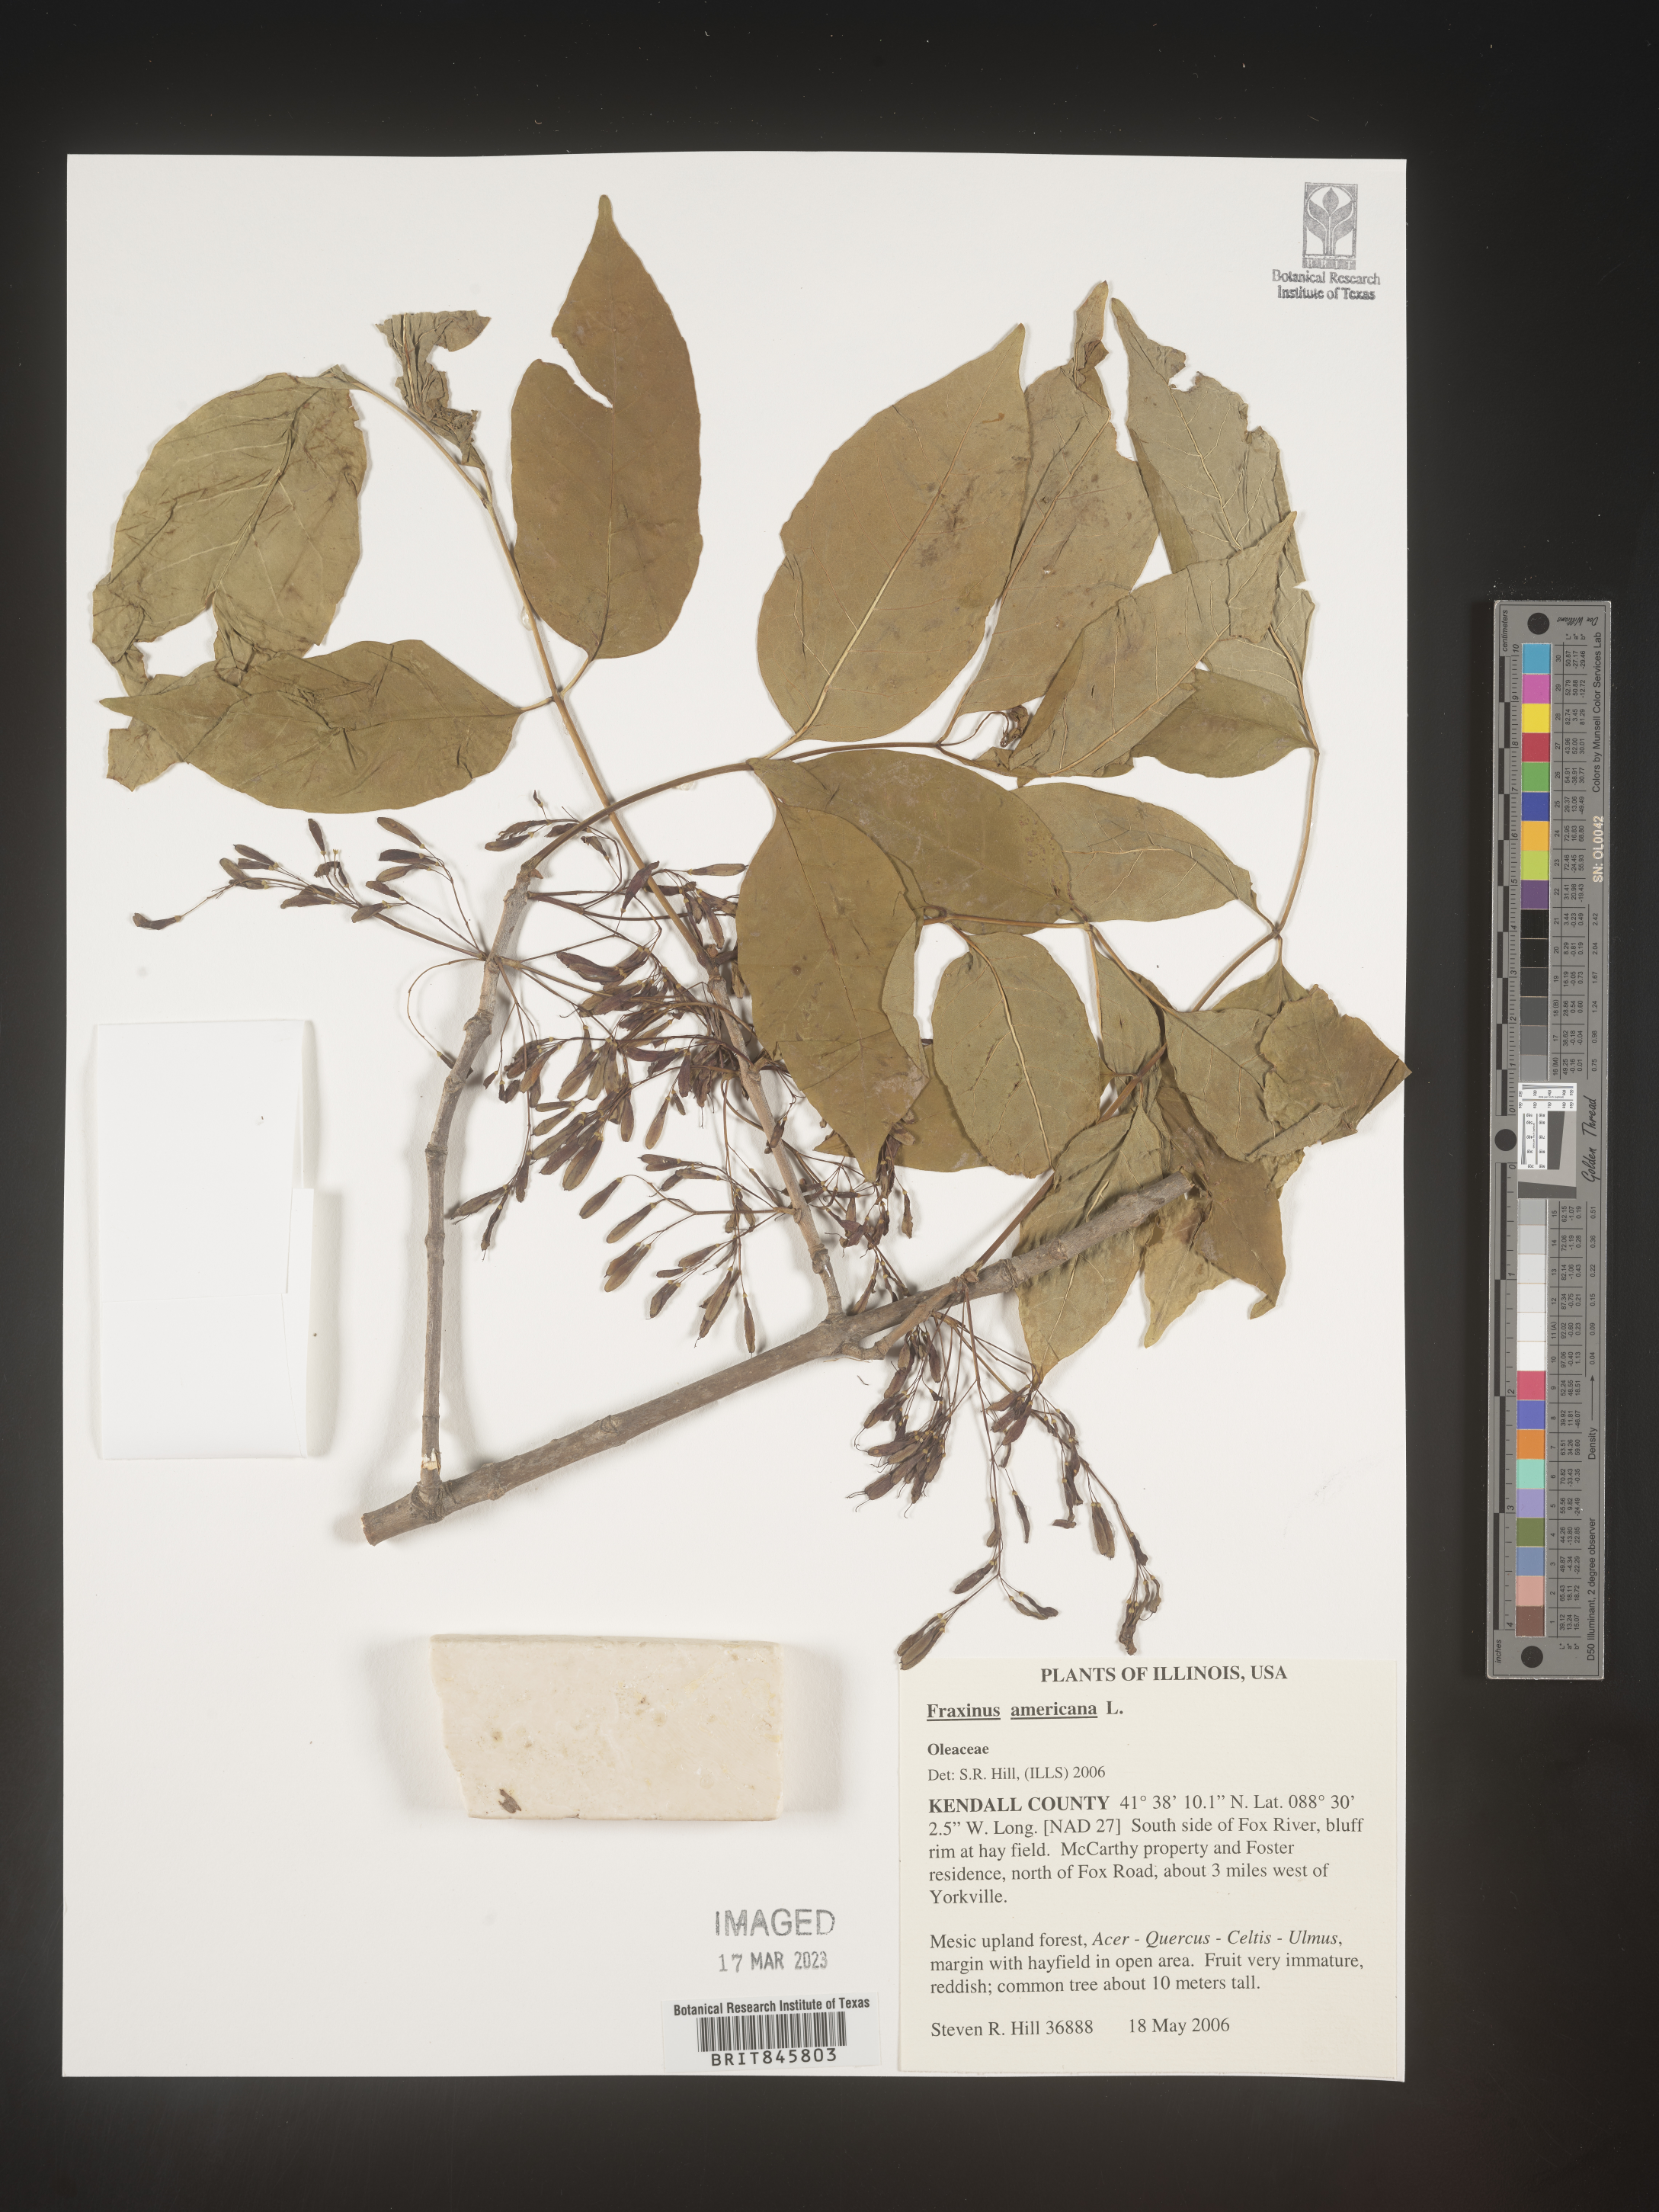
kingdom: Plantae
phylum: Tracheophyta
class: Magnoliopsida
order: Lamiales
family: Oleaceae
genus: Fraxinus
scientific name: Fraxinus americana
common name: White ash
